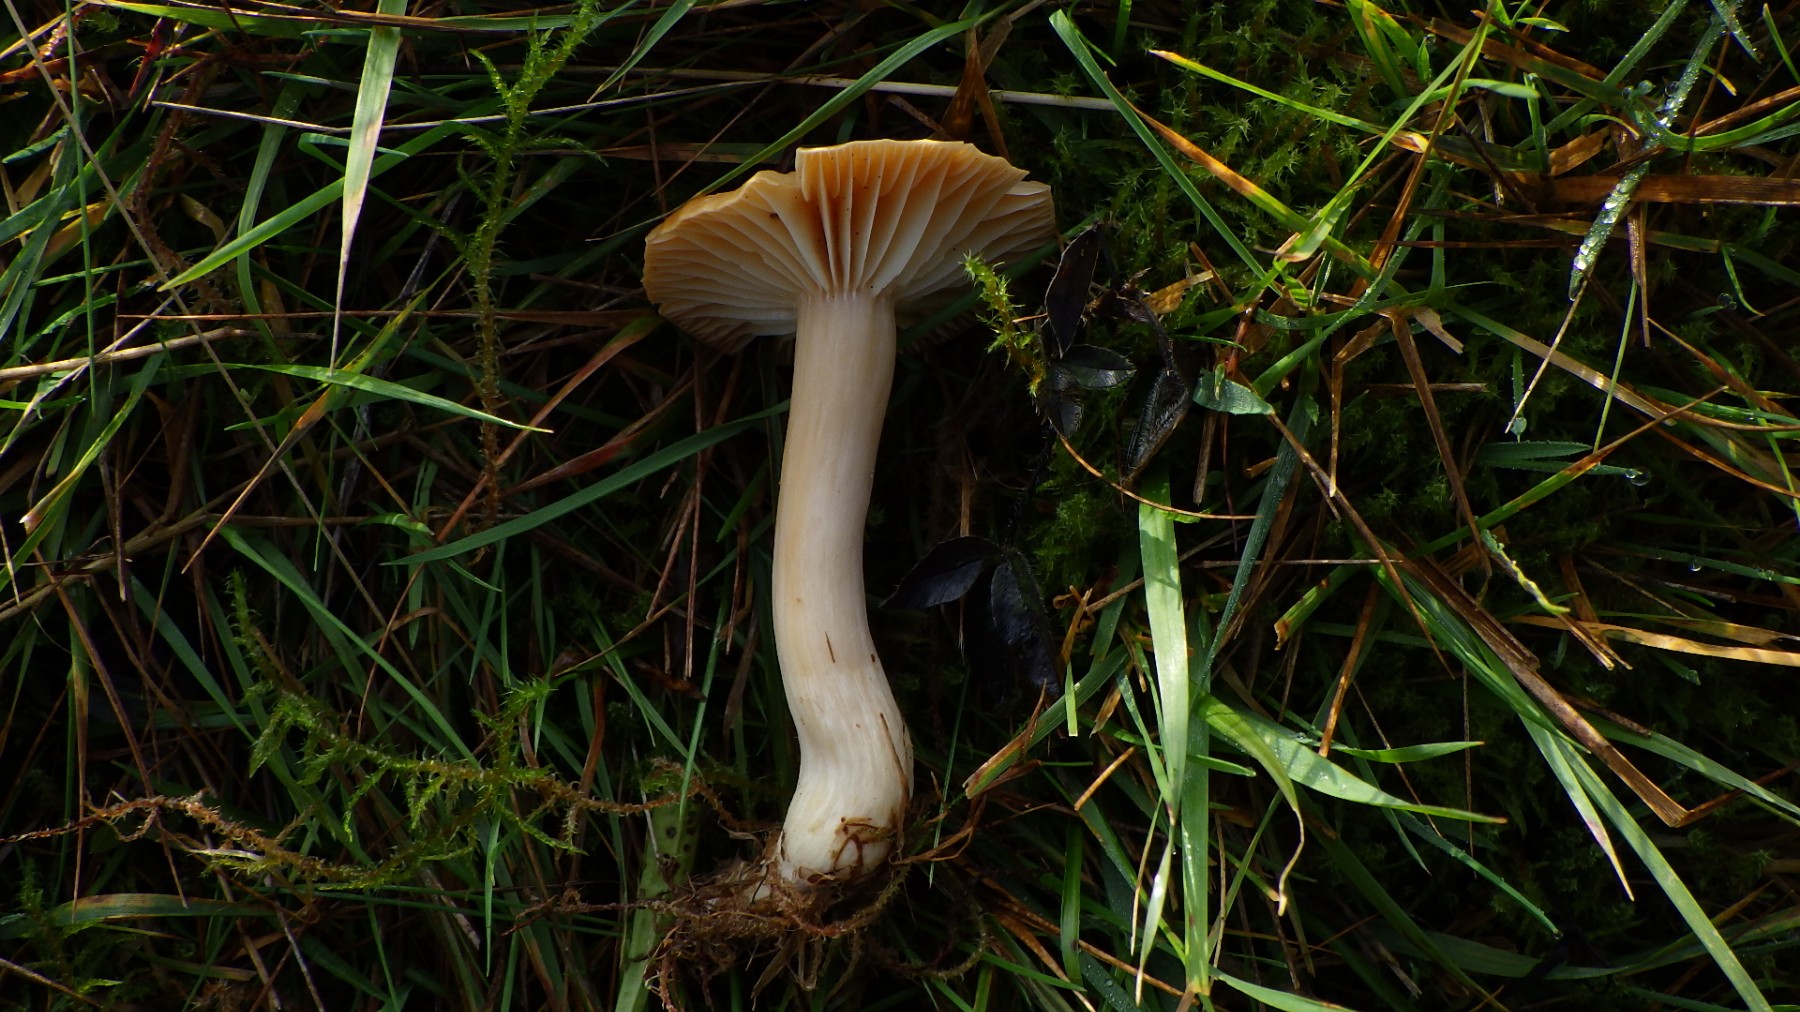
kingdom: Fungi
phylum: Basidiomycota
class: Agaricomycetes
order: Agaricales
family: Hygrophoraceae
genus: Cuphophyllus
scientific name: Cuphophyllus pratensis
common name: eng-vokshat
